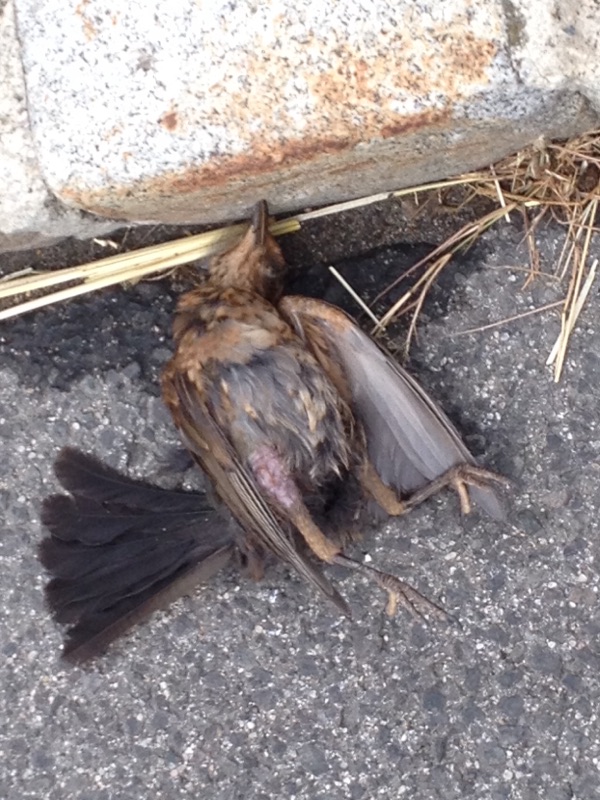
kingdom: Animalia
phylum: Chordata
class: Aves
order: Passeriformes
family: Turdidae
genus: Turdus
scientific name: Turdus merula
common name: Common blackbird
